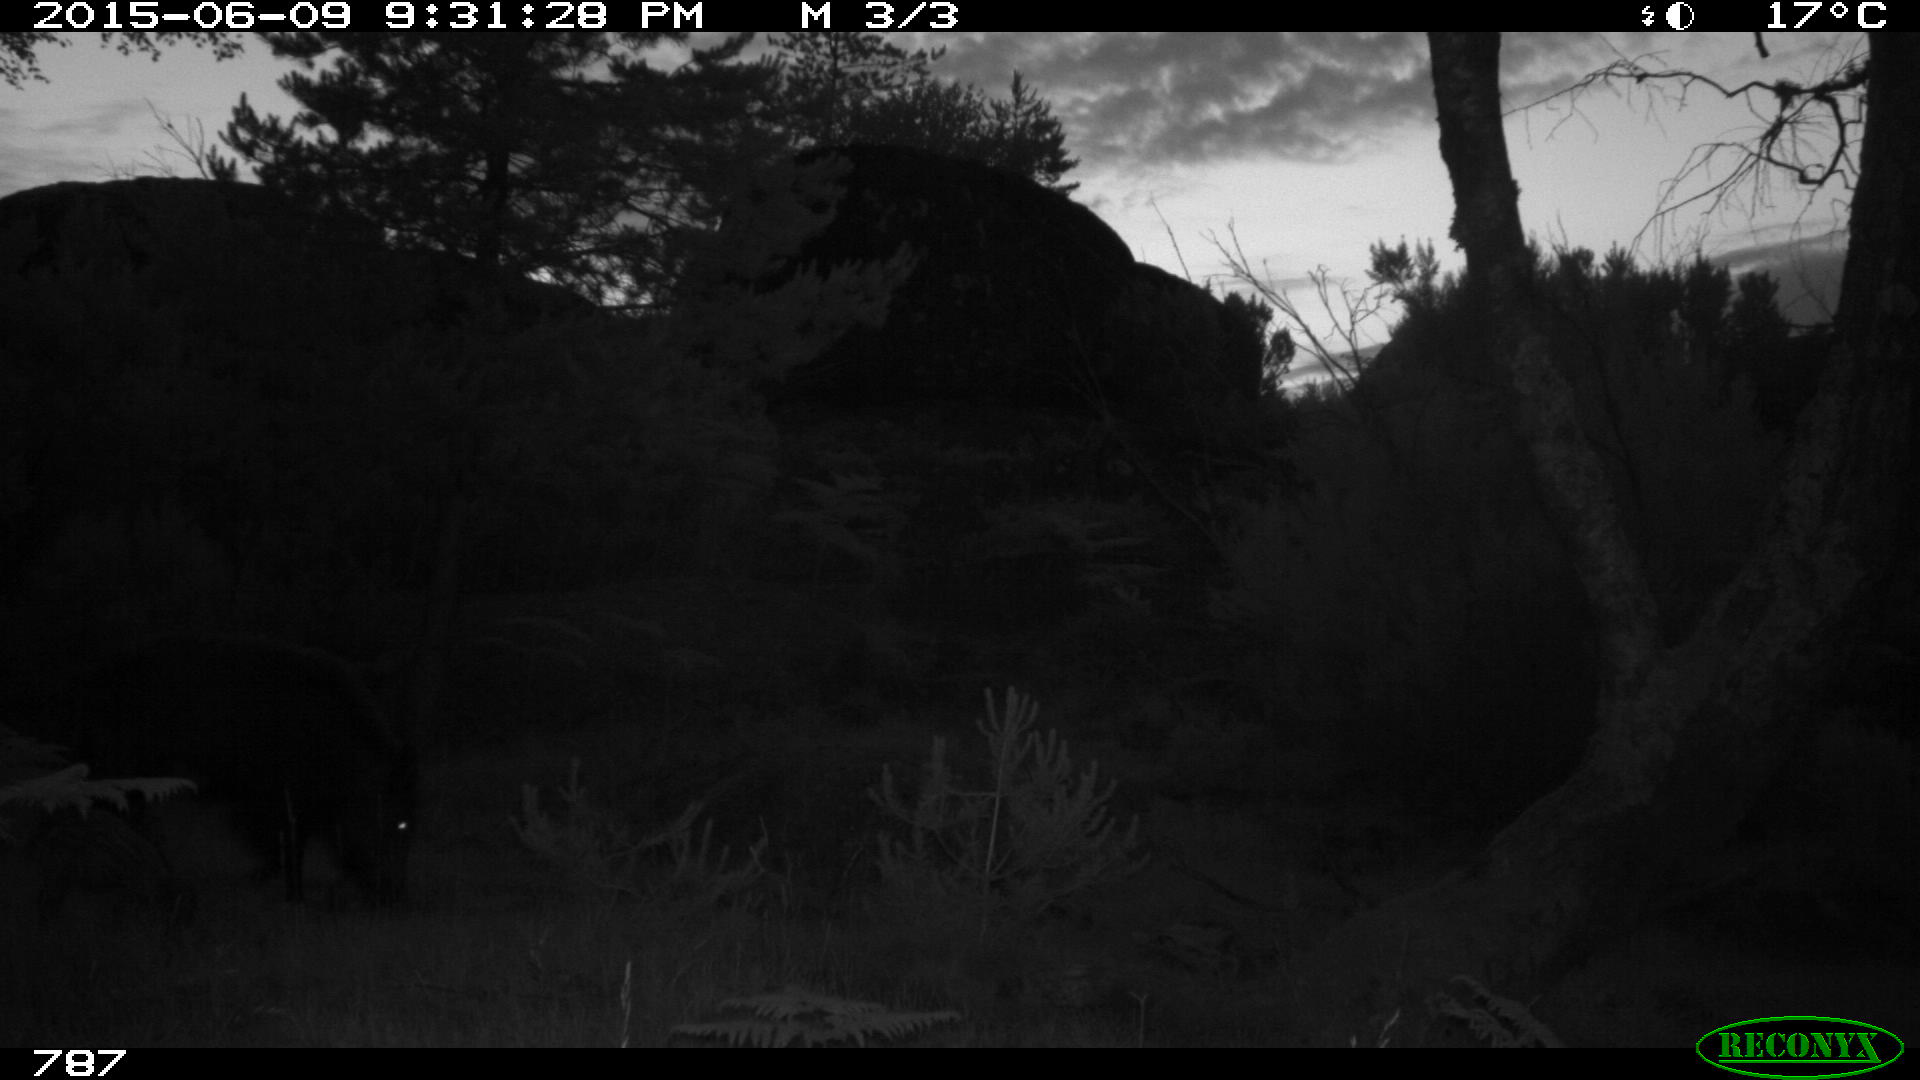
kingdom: Animalia
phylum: Chordata
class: Mammalia
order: Artiodactyla
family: Suidae
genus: Sus
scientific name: Sus scrofa
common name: Wild boar
